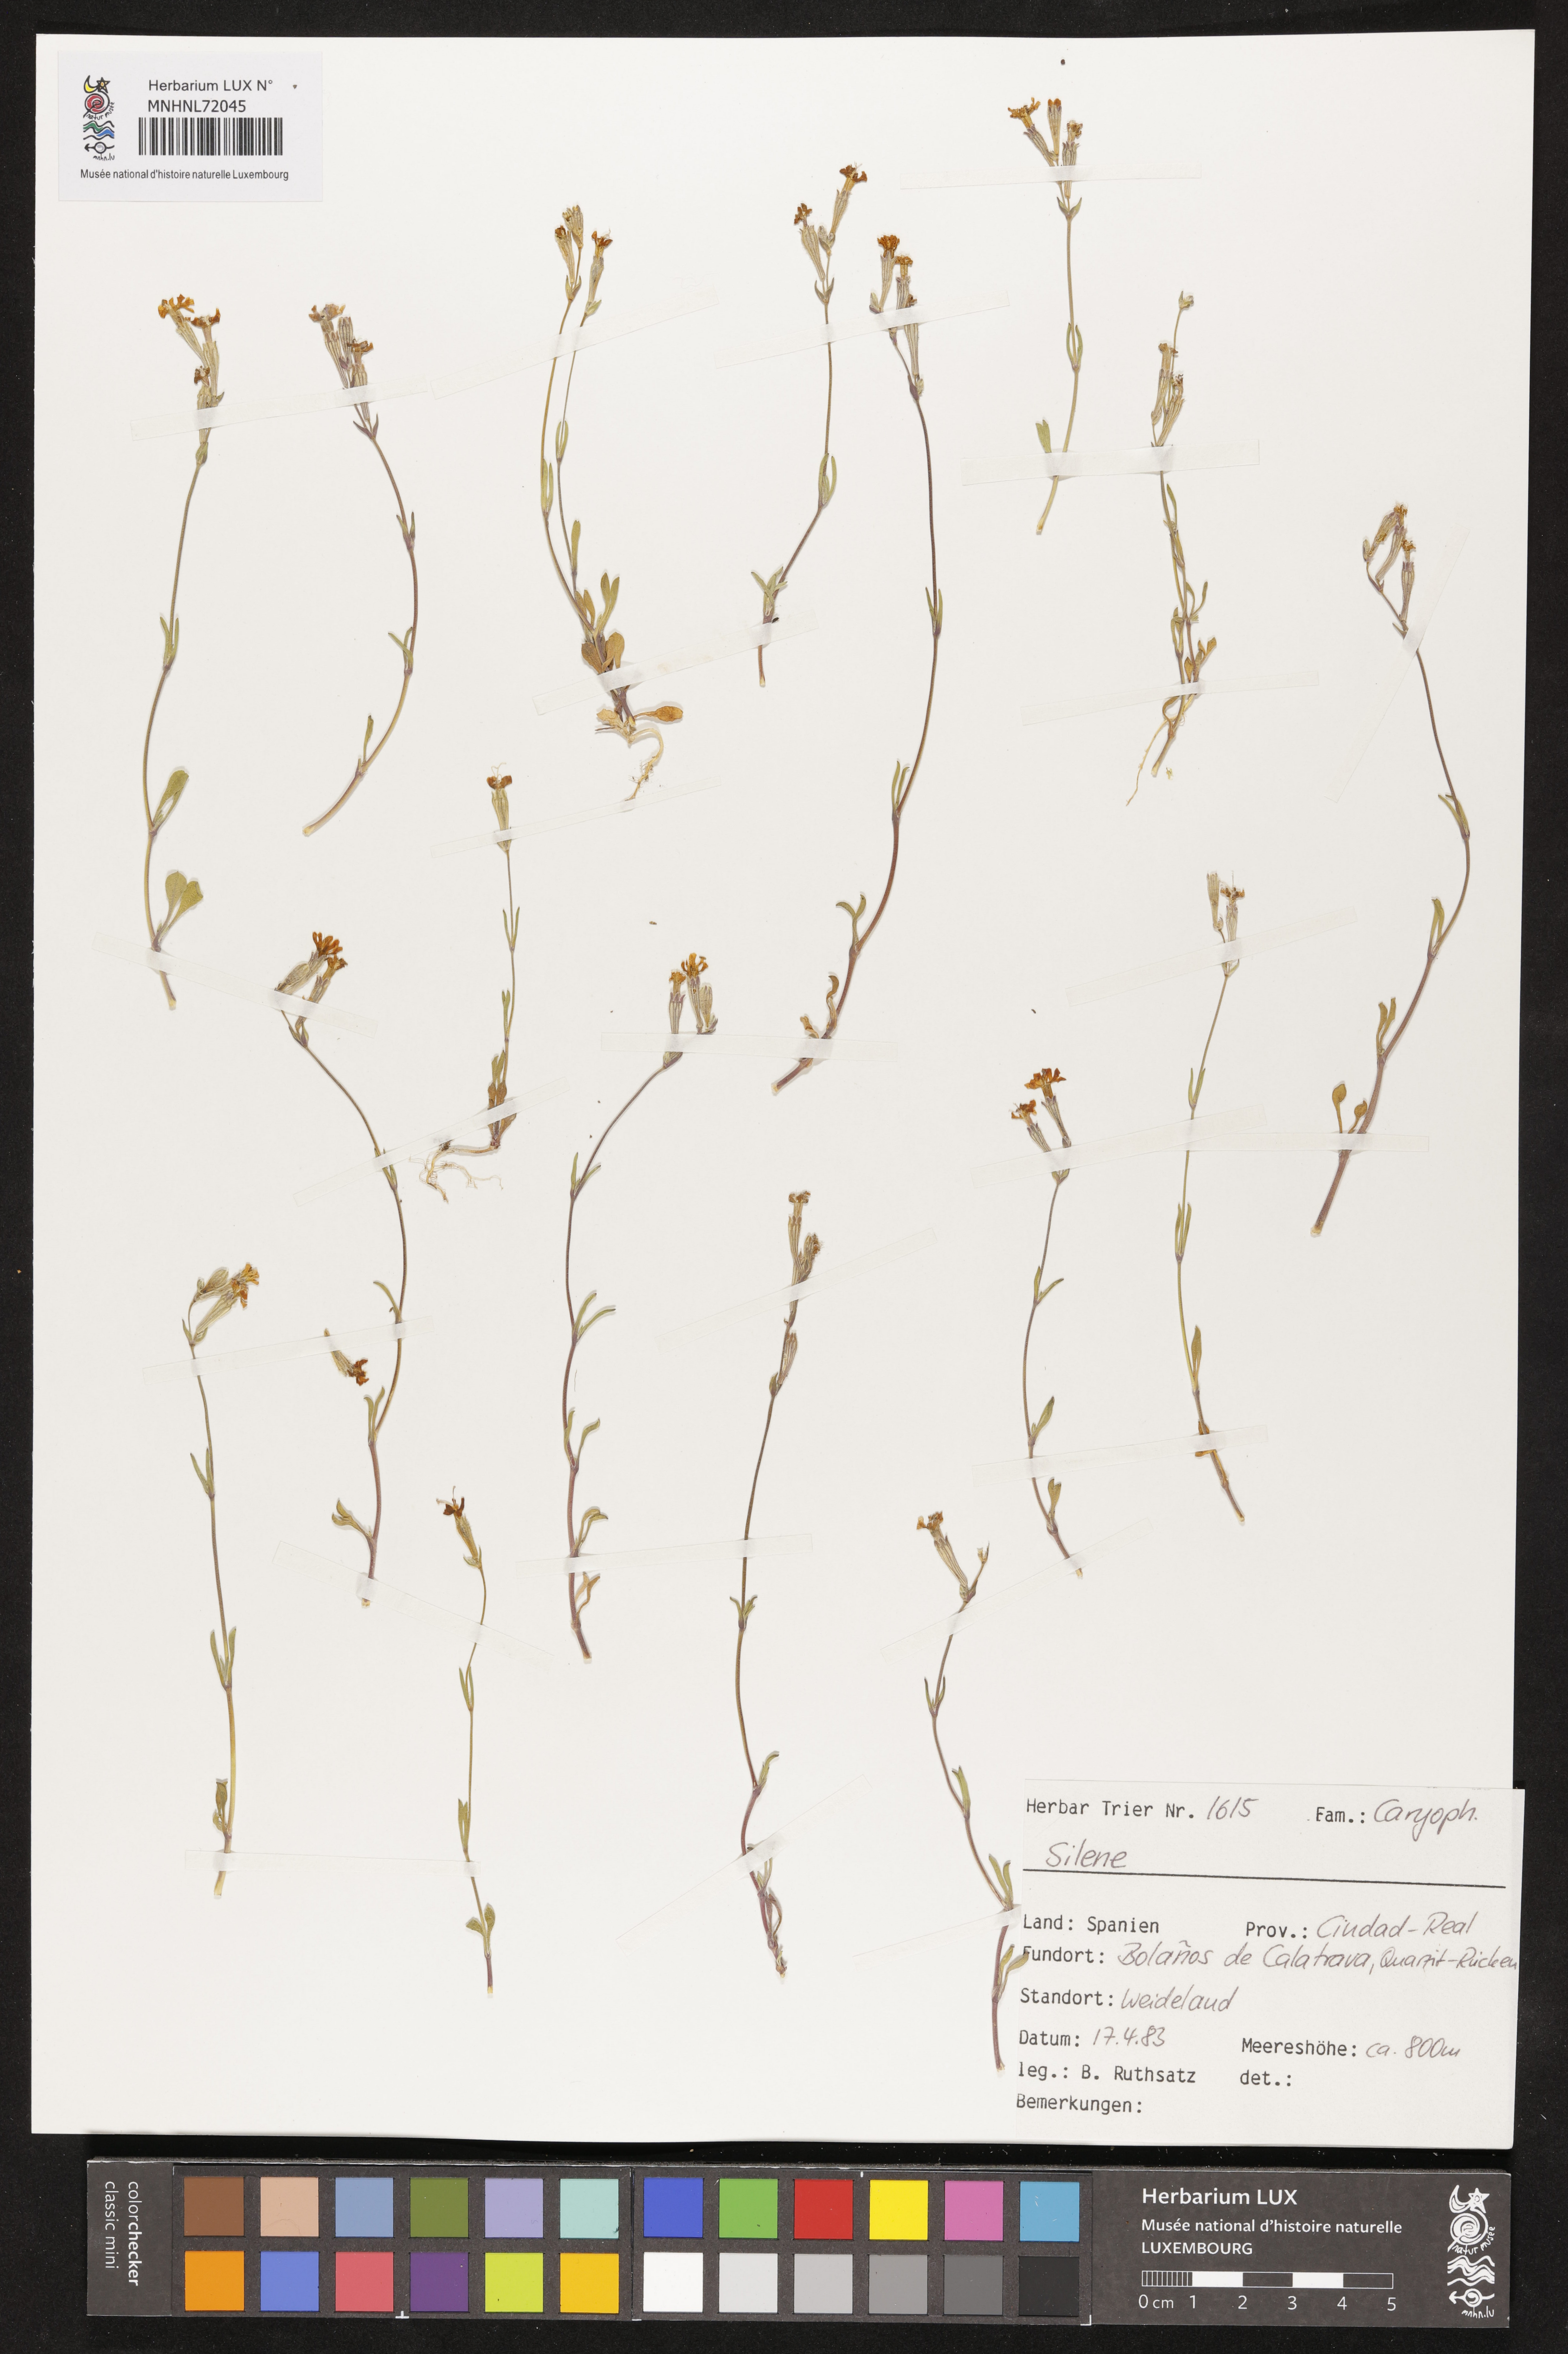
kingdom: Plantae
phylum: Tracheophyta
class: Magnoliopsida
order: Caryophyllales
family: Caryophyllaceae
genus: Silene
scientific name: Silene
